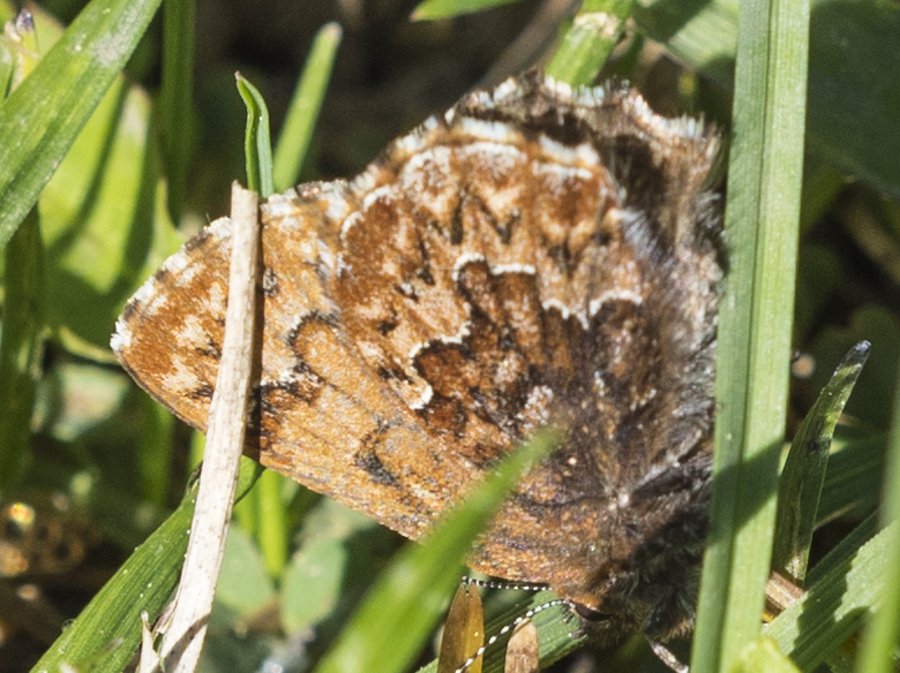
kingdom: Animalia
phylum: Arthropoda
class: Insecta
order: Lepidoptera
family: Lycaenidae
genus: Incisalia
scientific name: Incisalia eryphon
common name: Western Pine Elfin
